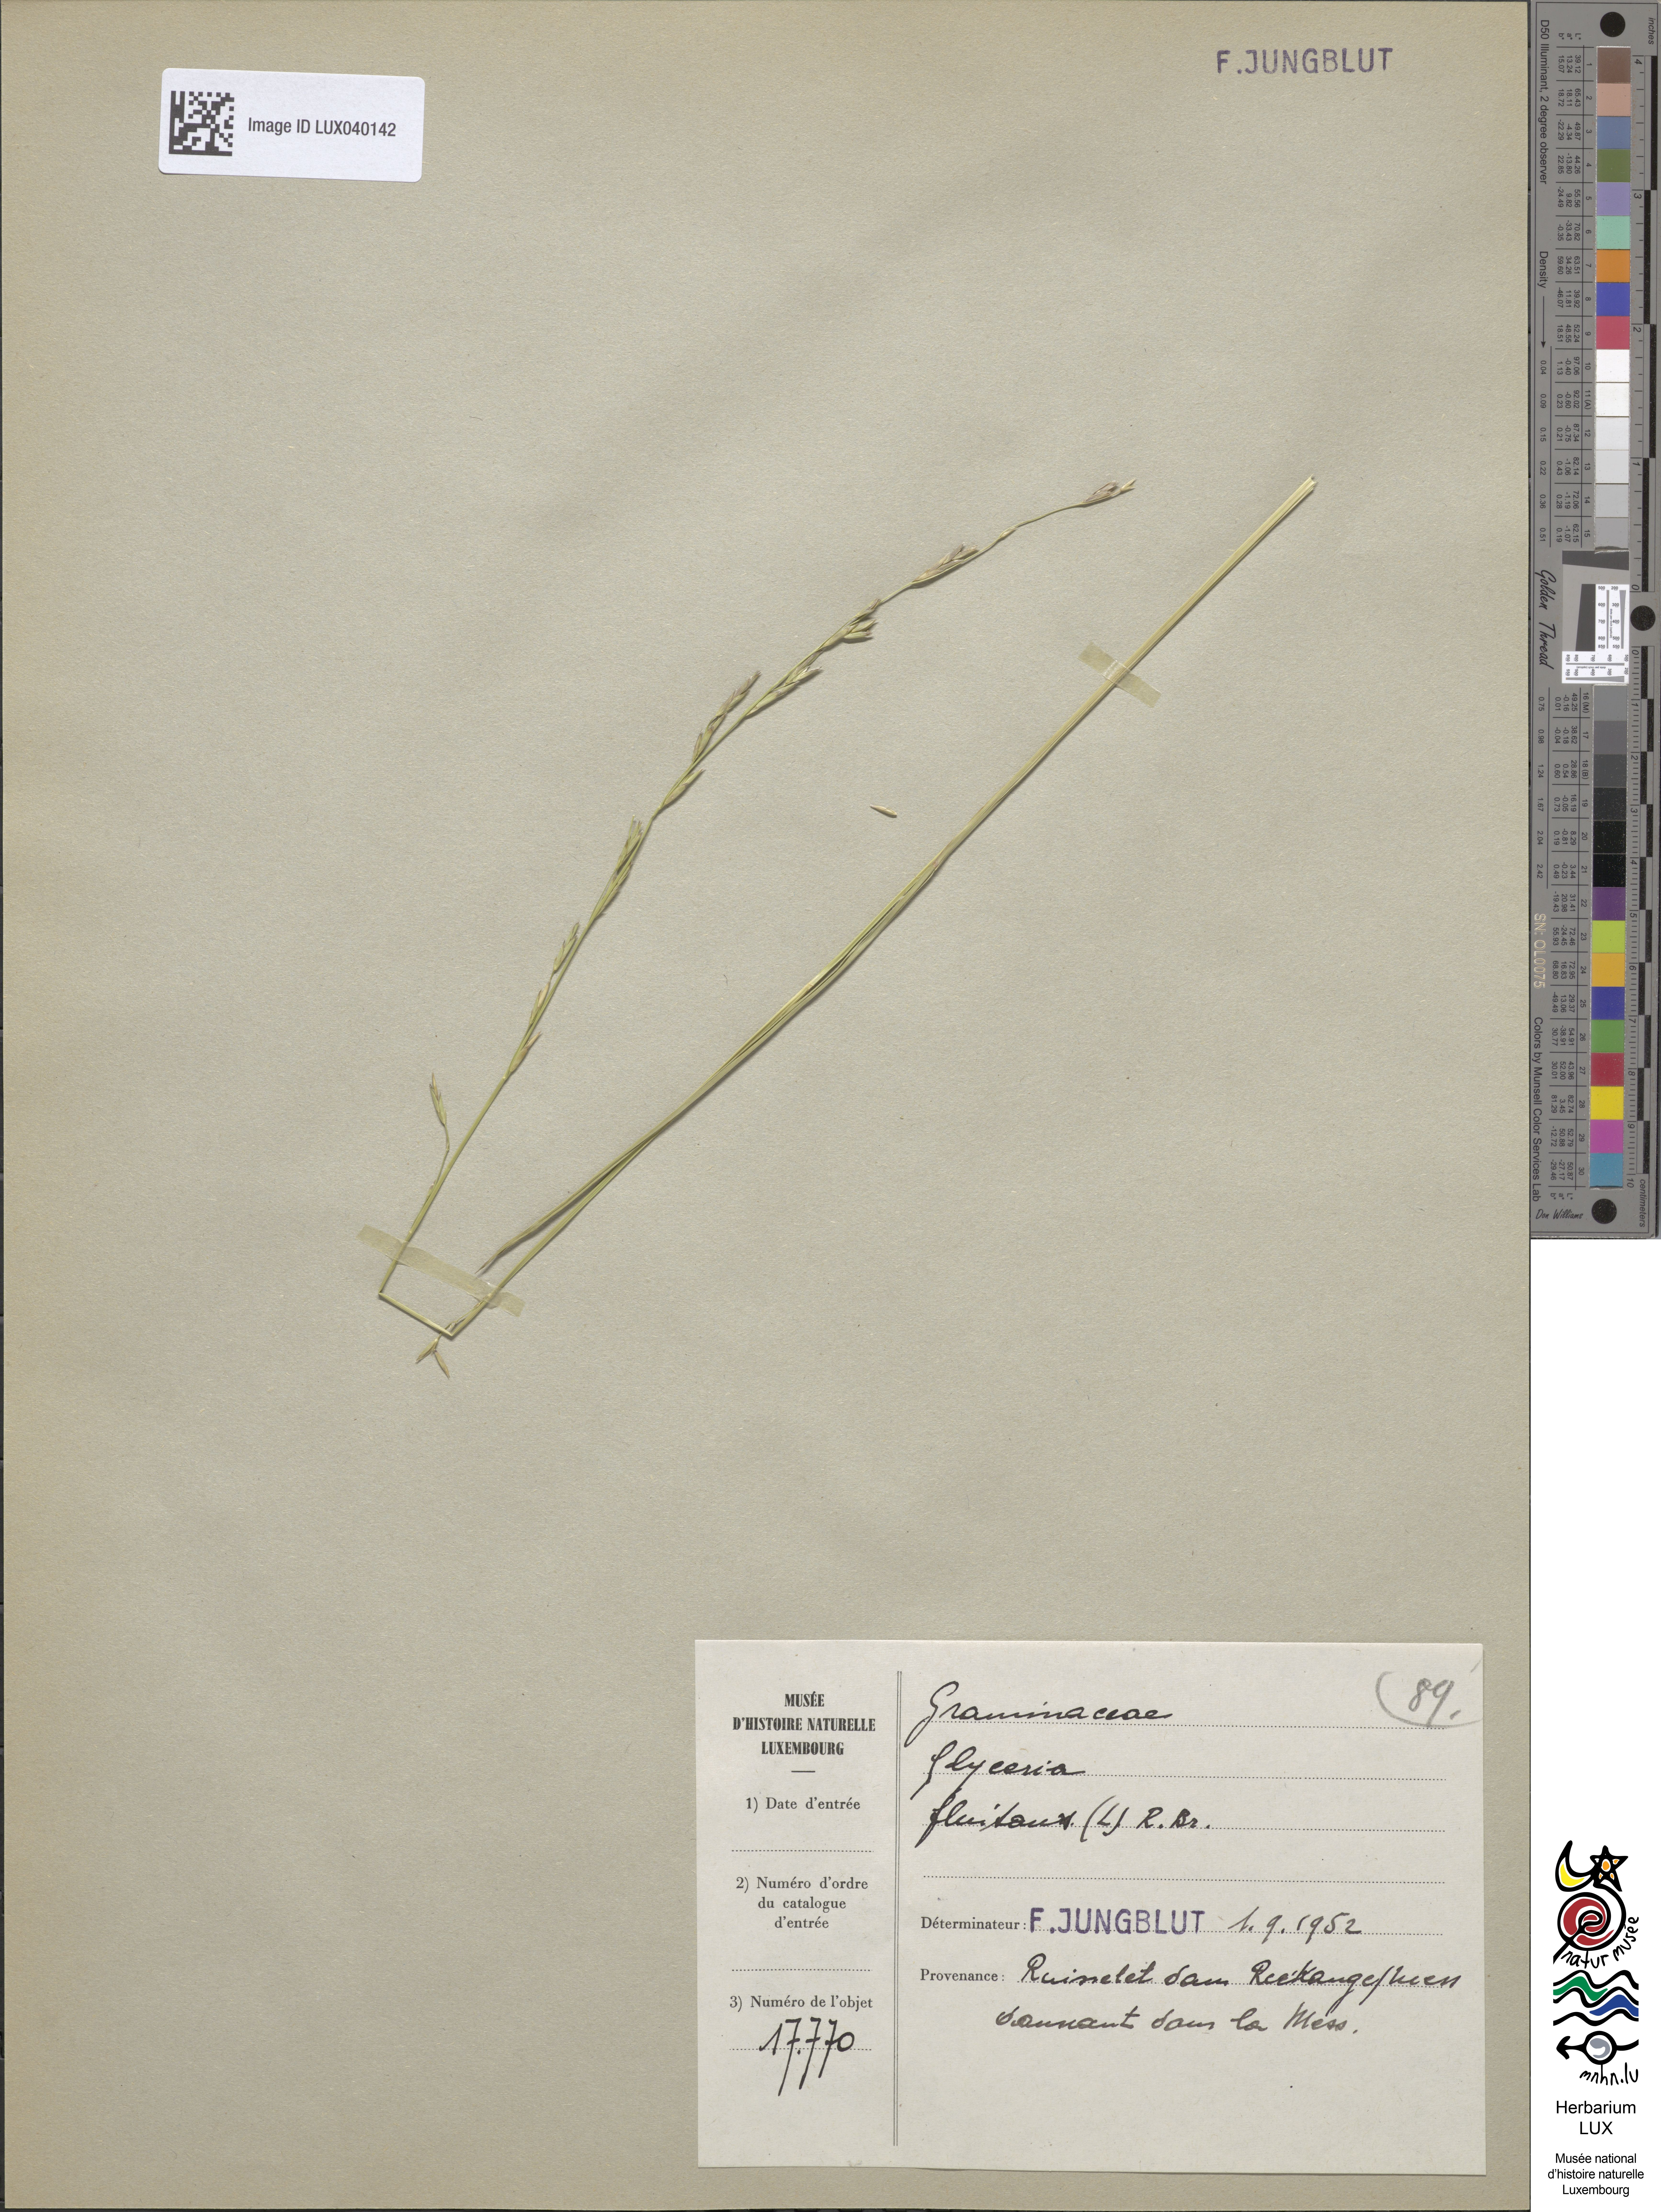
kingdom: Plantae
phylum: Tracheophyta
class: Liliopsida
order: Poales
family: Poaceae
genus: Glyceria
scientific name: Glyceria fluitans
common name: Floating sweet-grass
